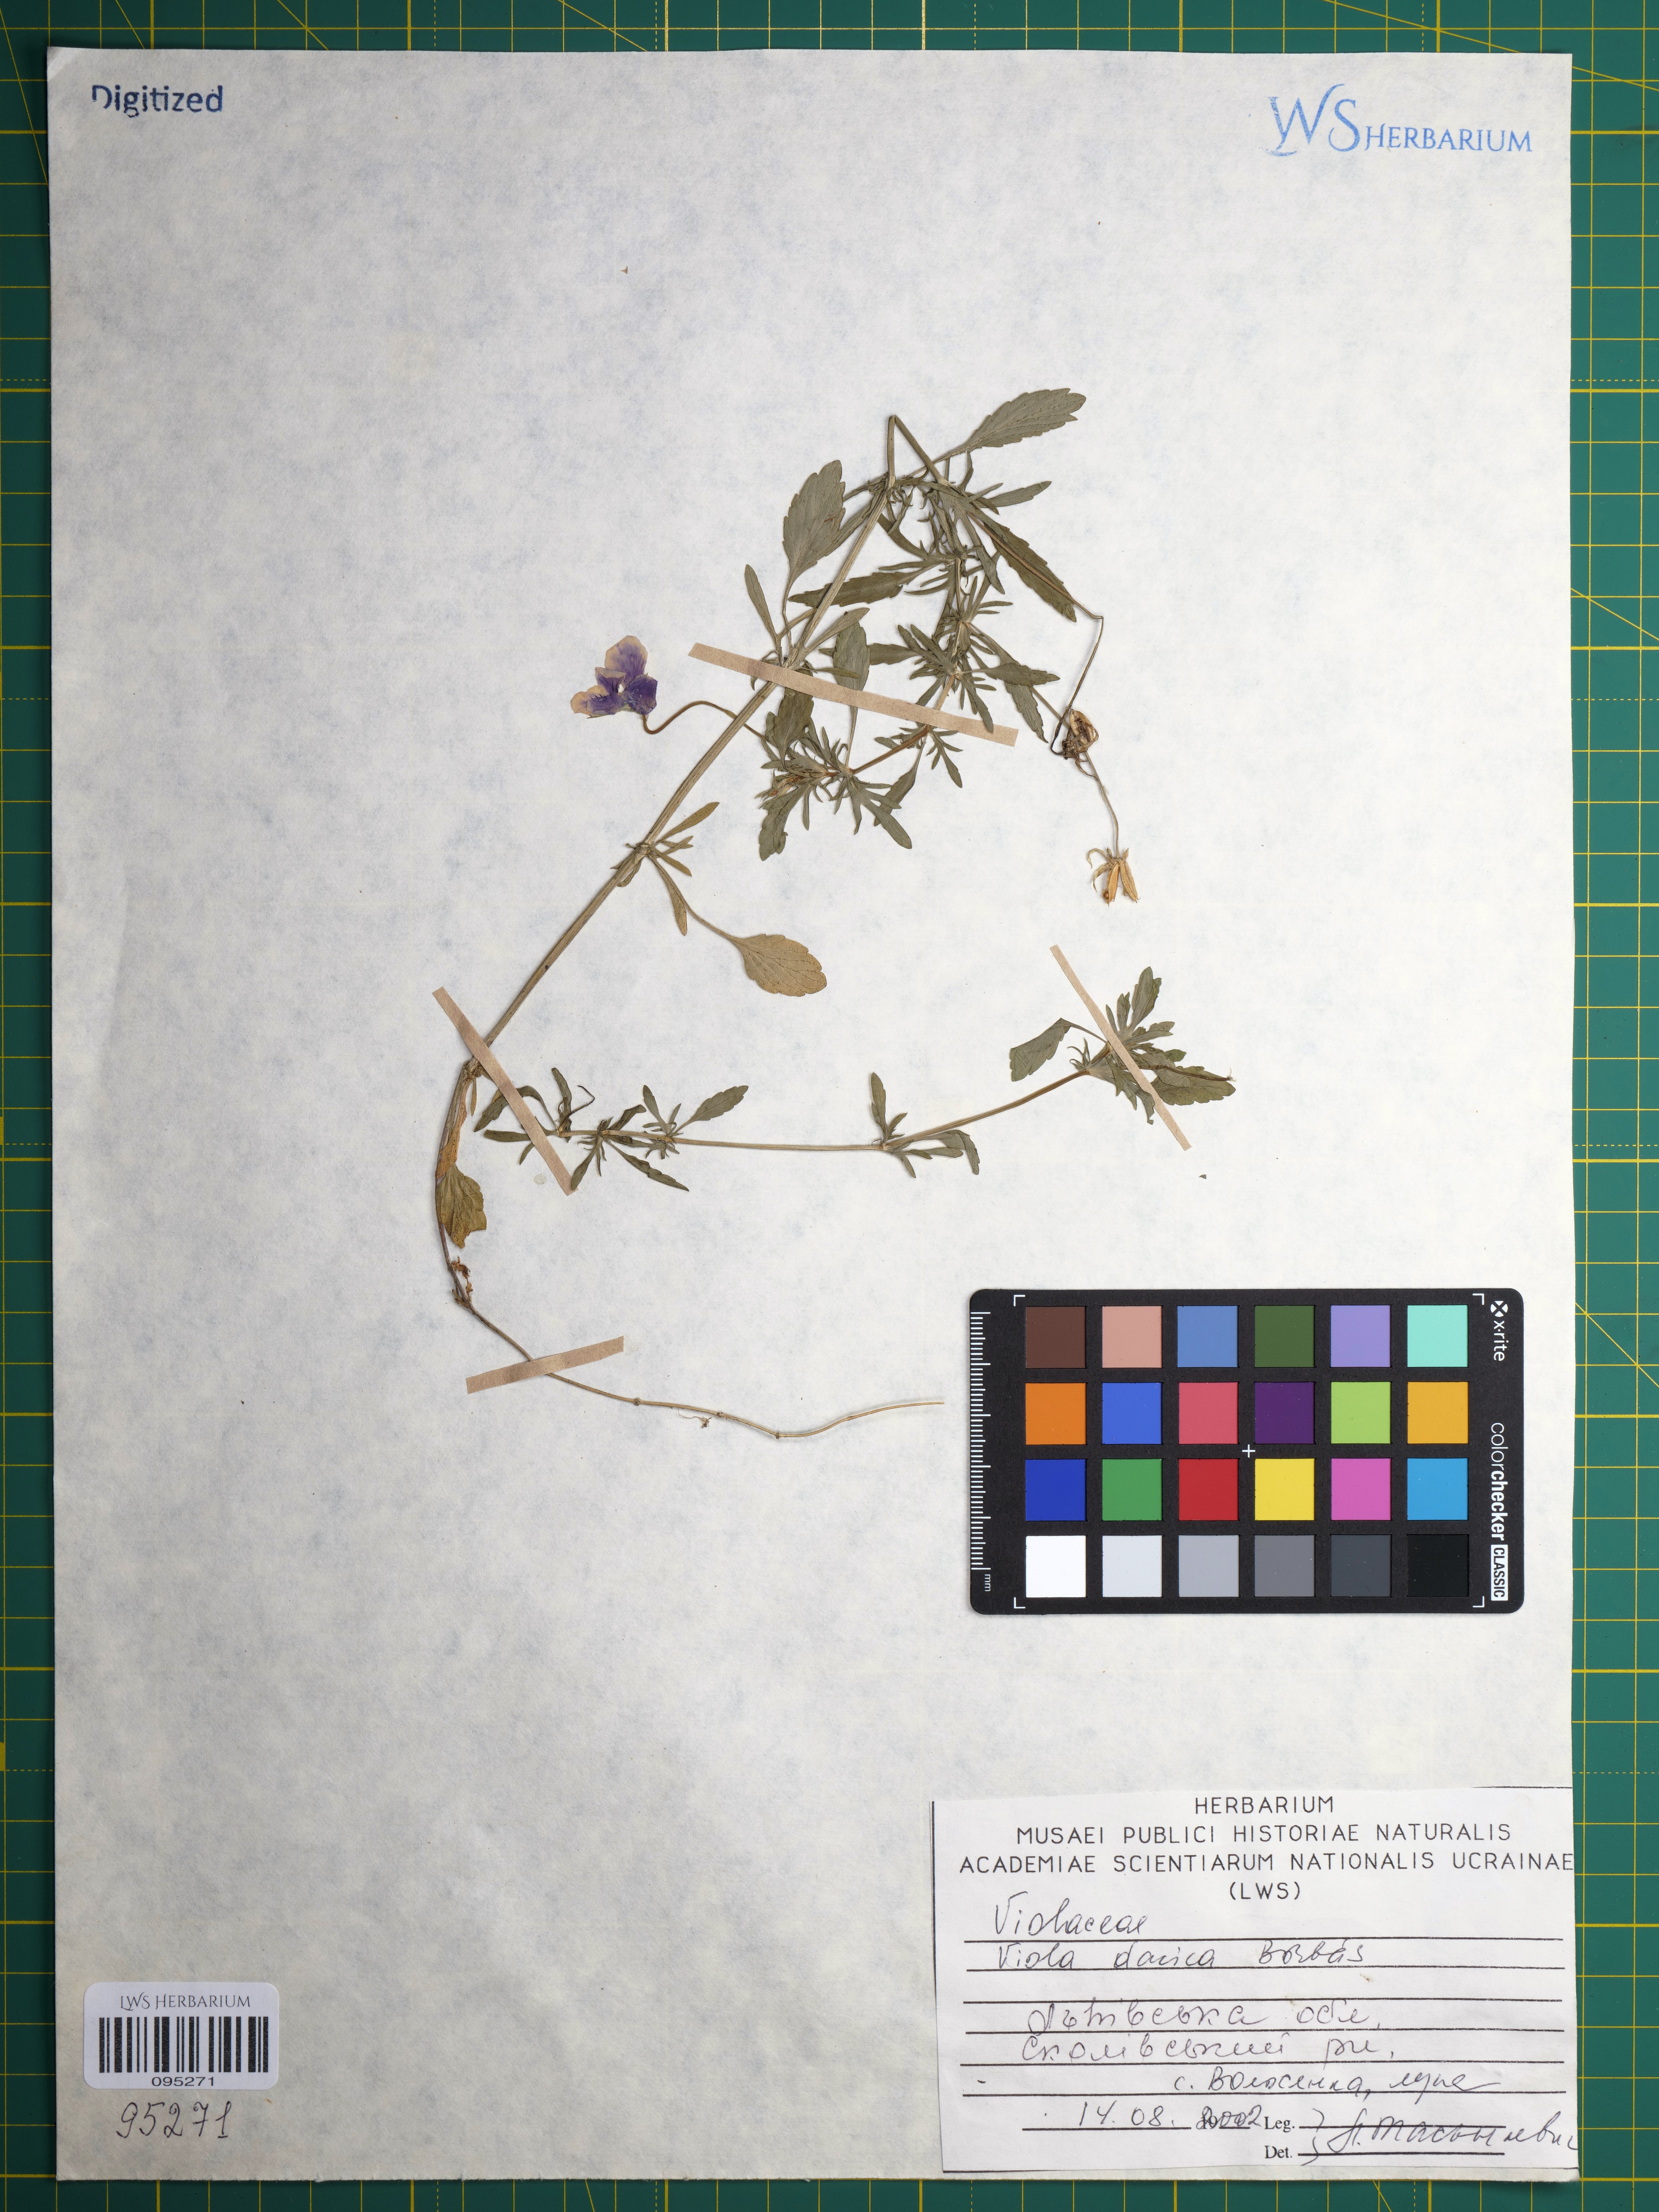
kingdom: Plantae
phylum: Tracheophyta
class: Magnoliopsida
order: Malpighiales
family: Violaceae
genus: Viola
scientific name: Viola dacica
